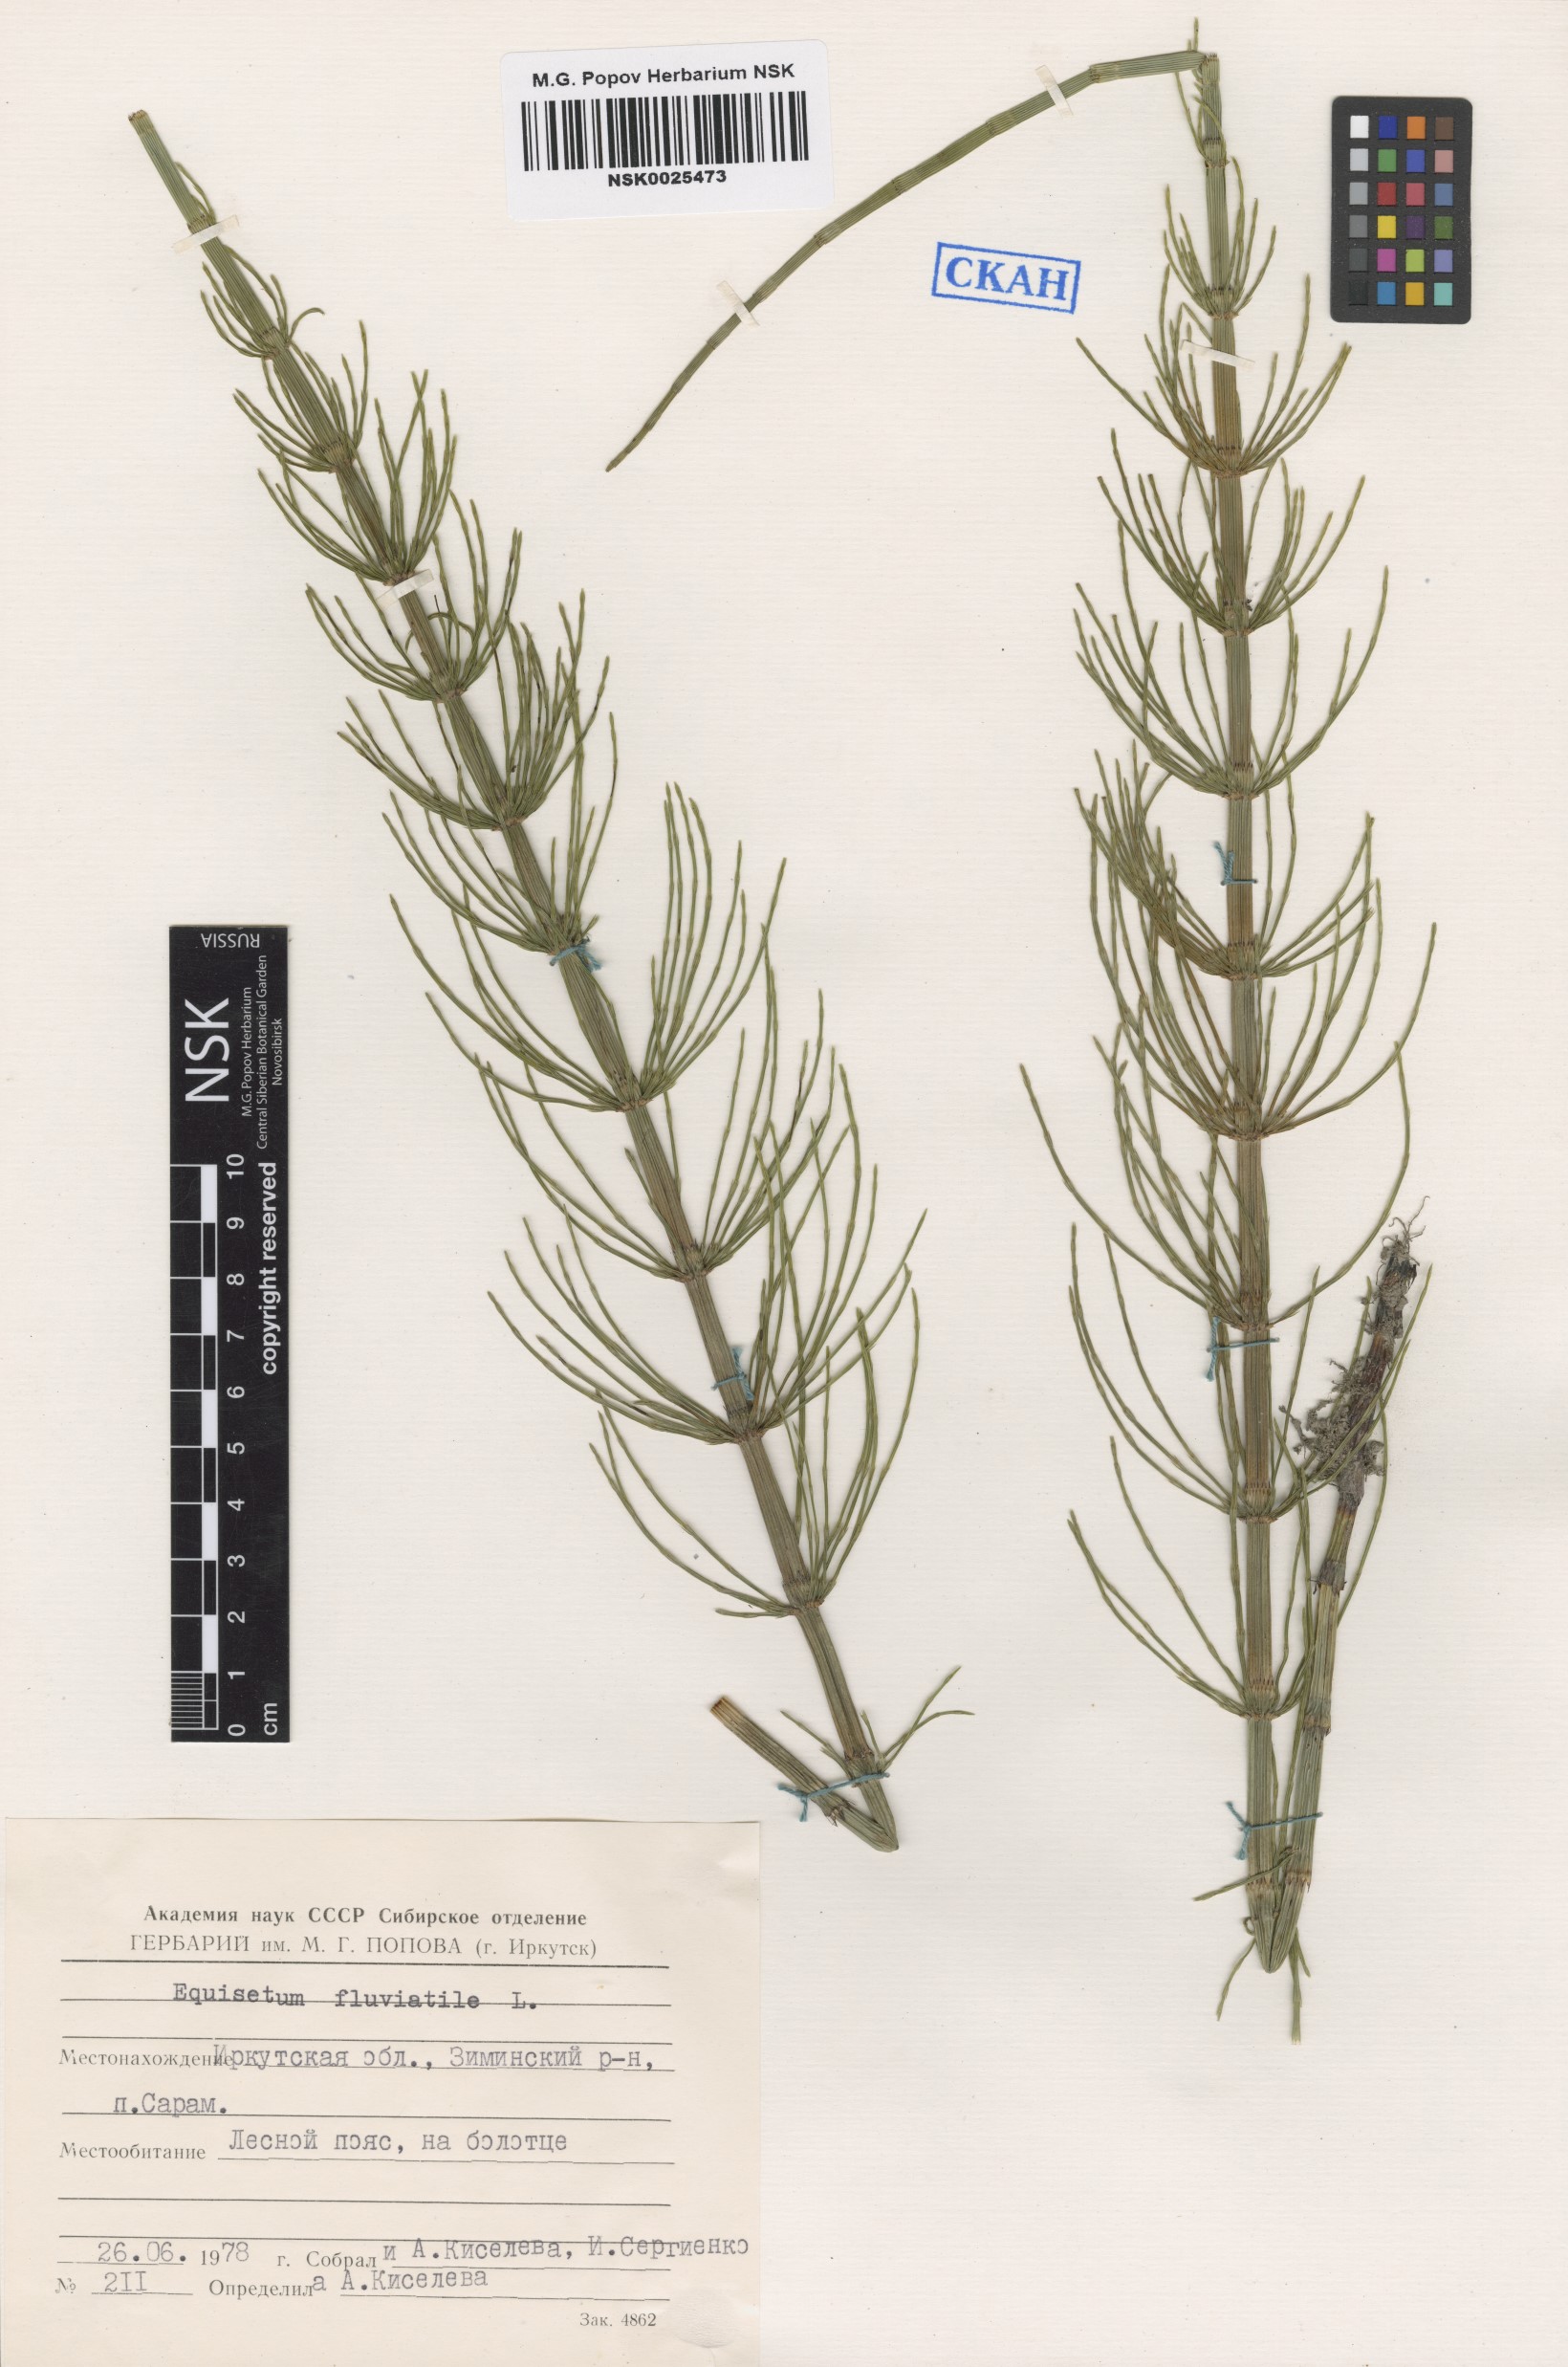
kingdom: Plantae
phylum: Tracheophyta
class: Polypodiopsida
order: Equisetales
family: Equisetaceae
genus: Equisetum
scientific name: Equisetum fluviatile
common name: Water horsetail
